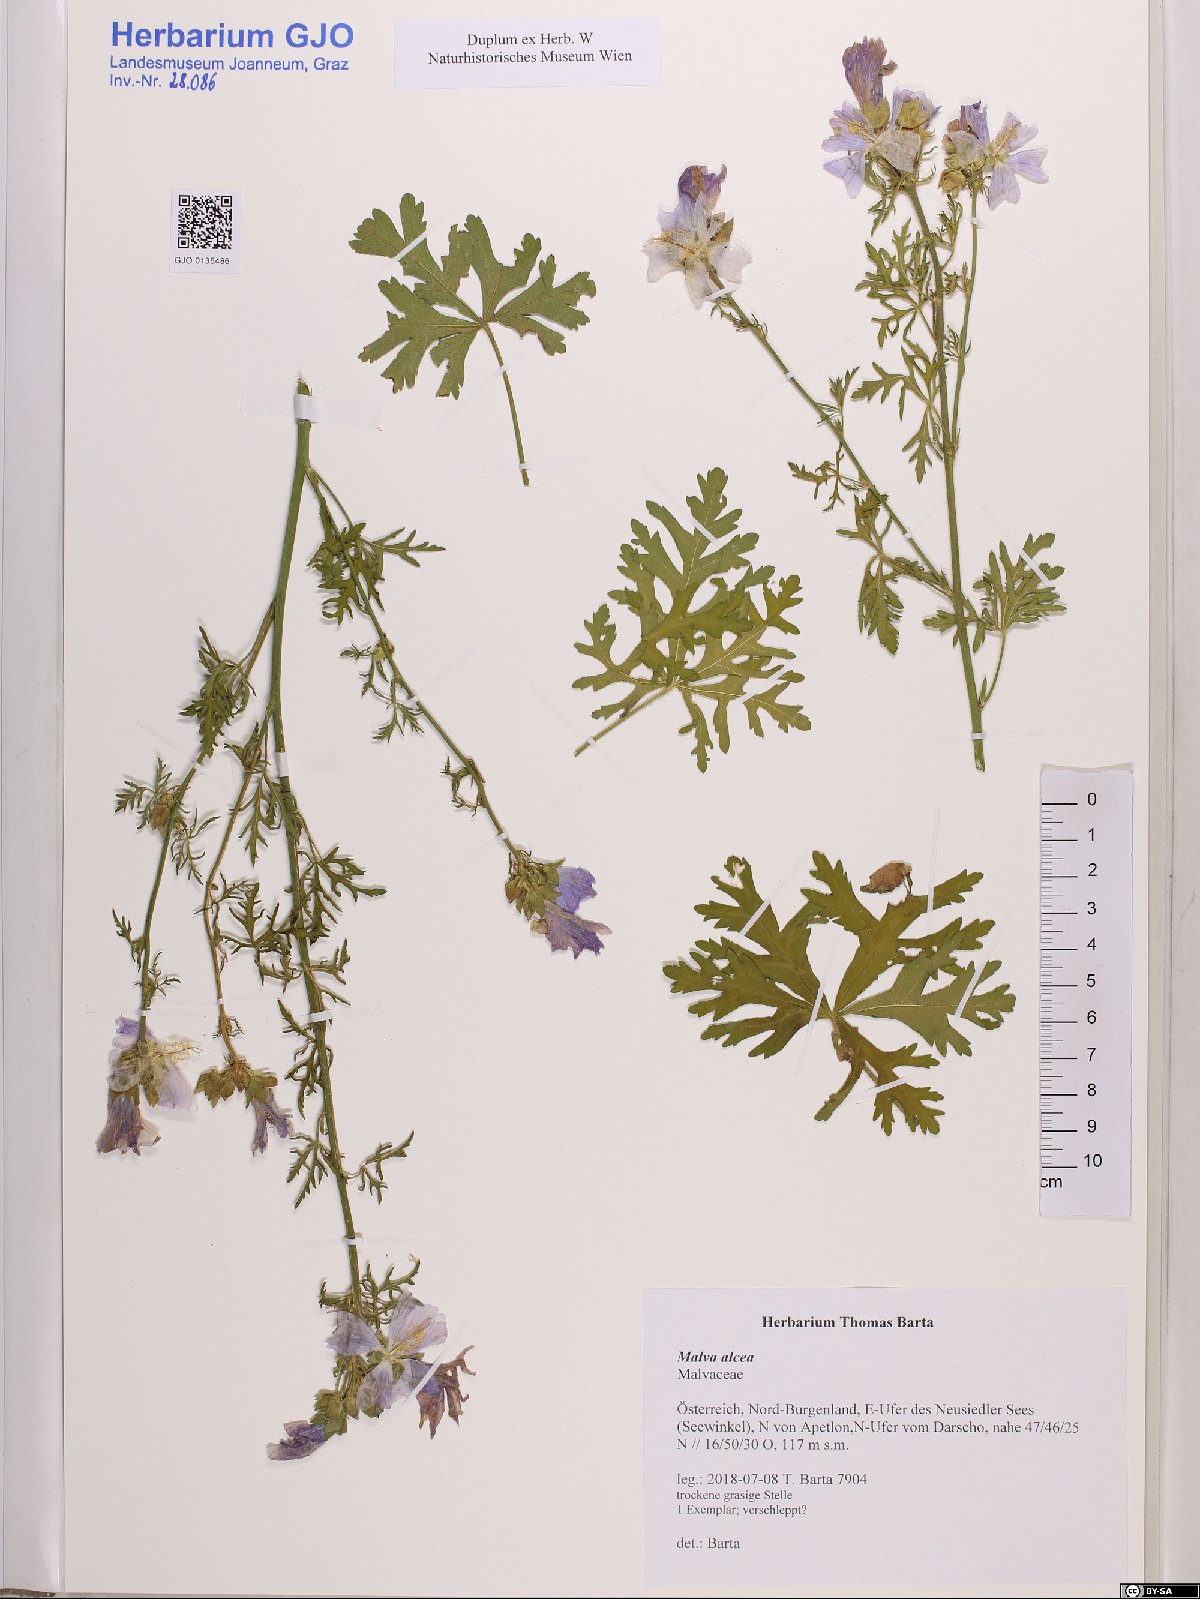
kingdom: Plantae
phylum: Tracheophyta
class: Magnoliopsida
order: Malvales
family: Malvaceae
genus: Malva
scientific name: Malva alcea
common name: Greater musk-mallow
